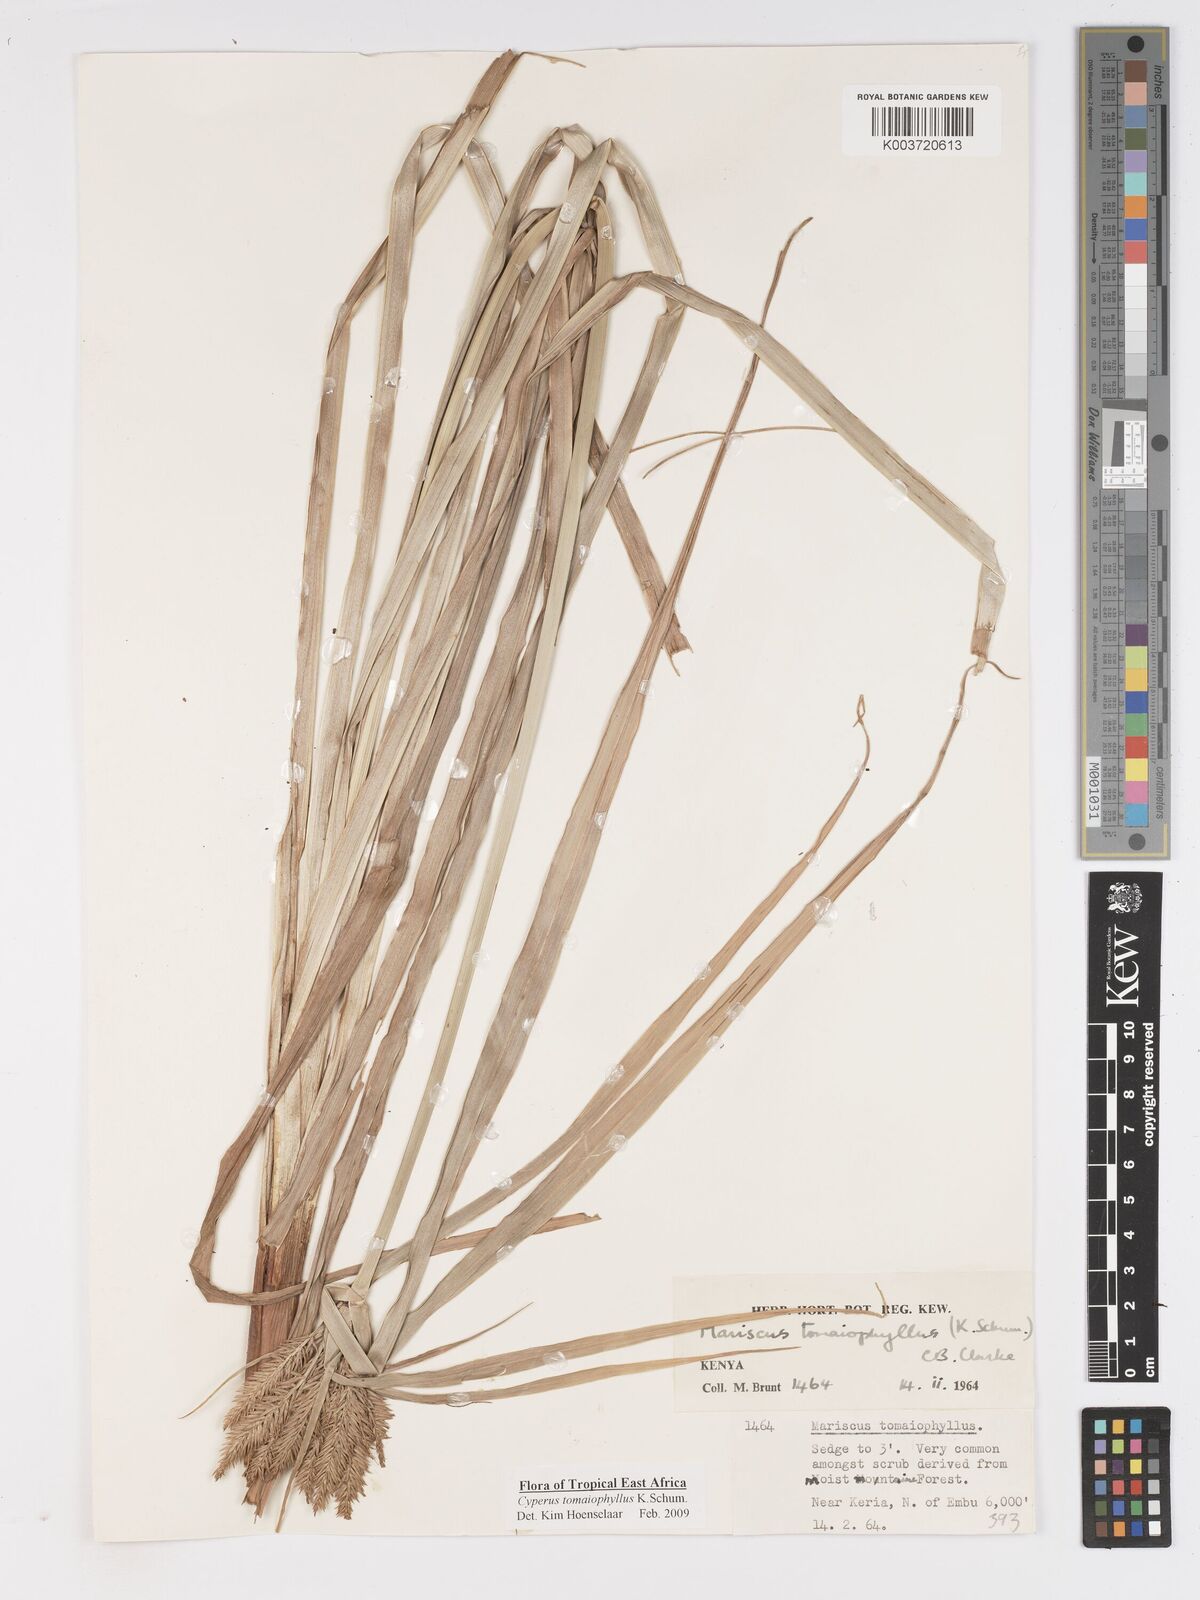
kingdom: Plantae
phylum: Tracheophyta
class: Liliopsida
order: Poales
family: Cyperaceae
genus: Cyperus
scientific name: Cyperus tomaiophyllus
